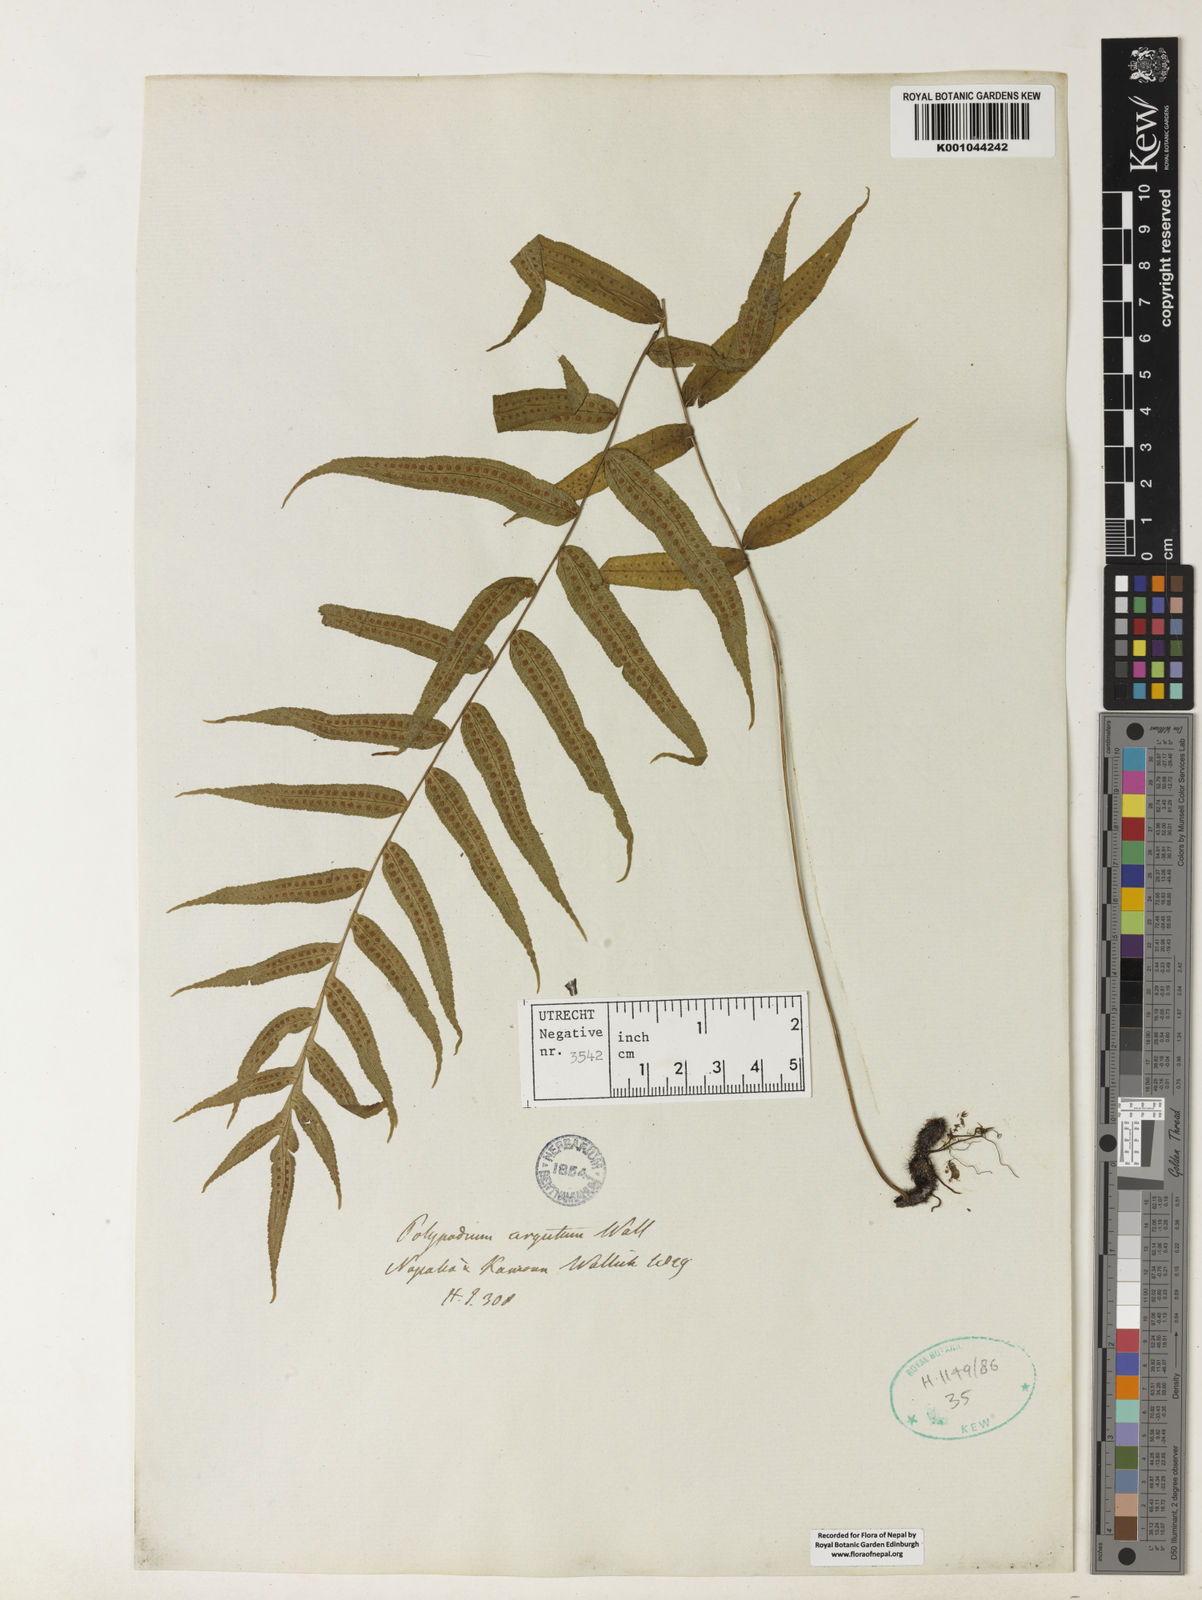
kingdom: Plantae
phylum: Tracheophyta
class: Polypodiopsida
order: Polypodiales
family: Polypodiaceae
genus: Goniophlebium
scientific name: Goniophlebium argutum
